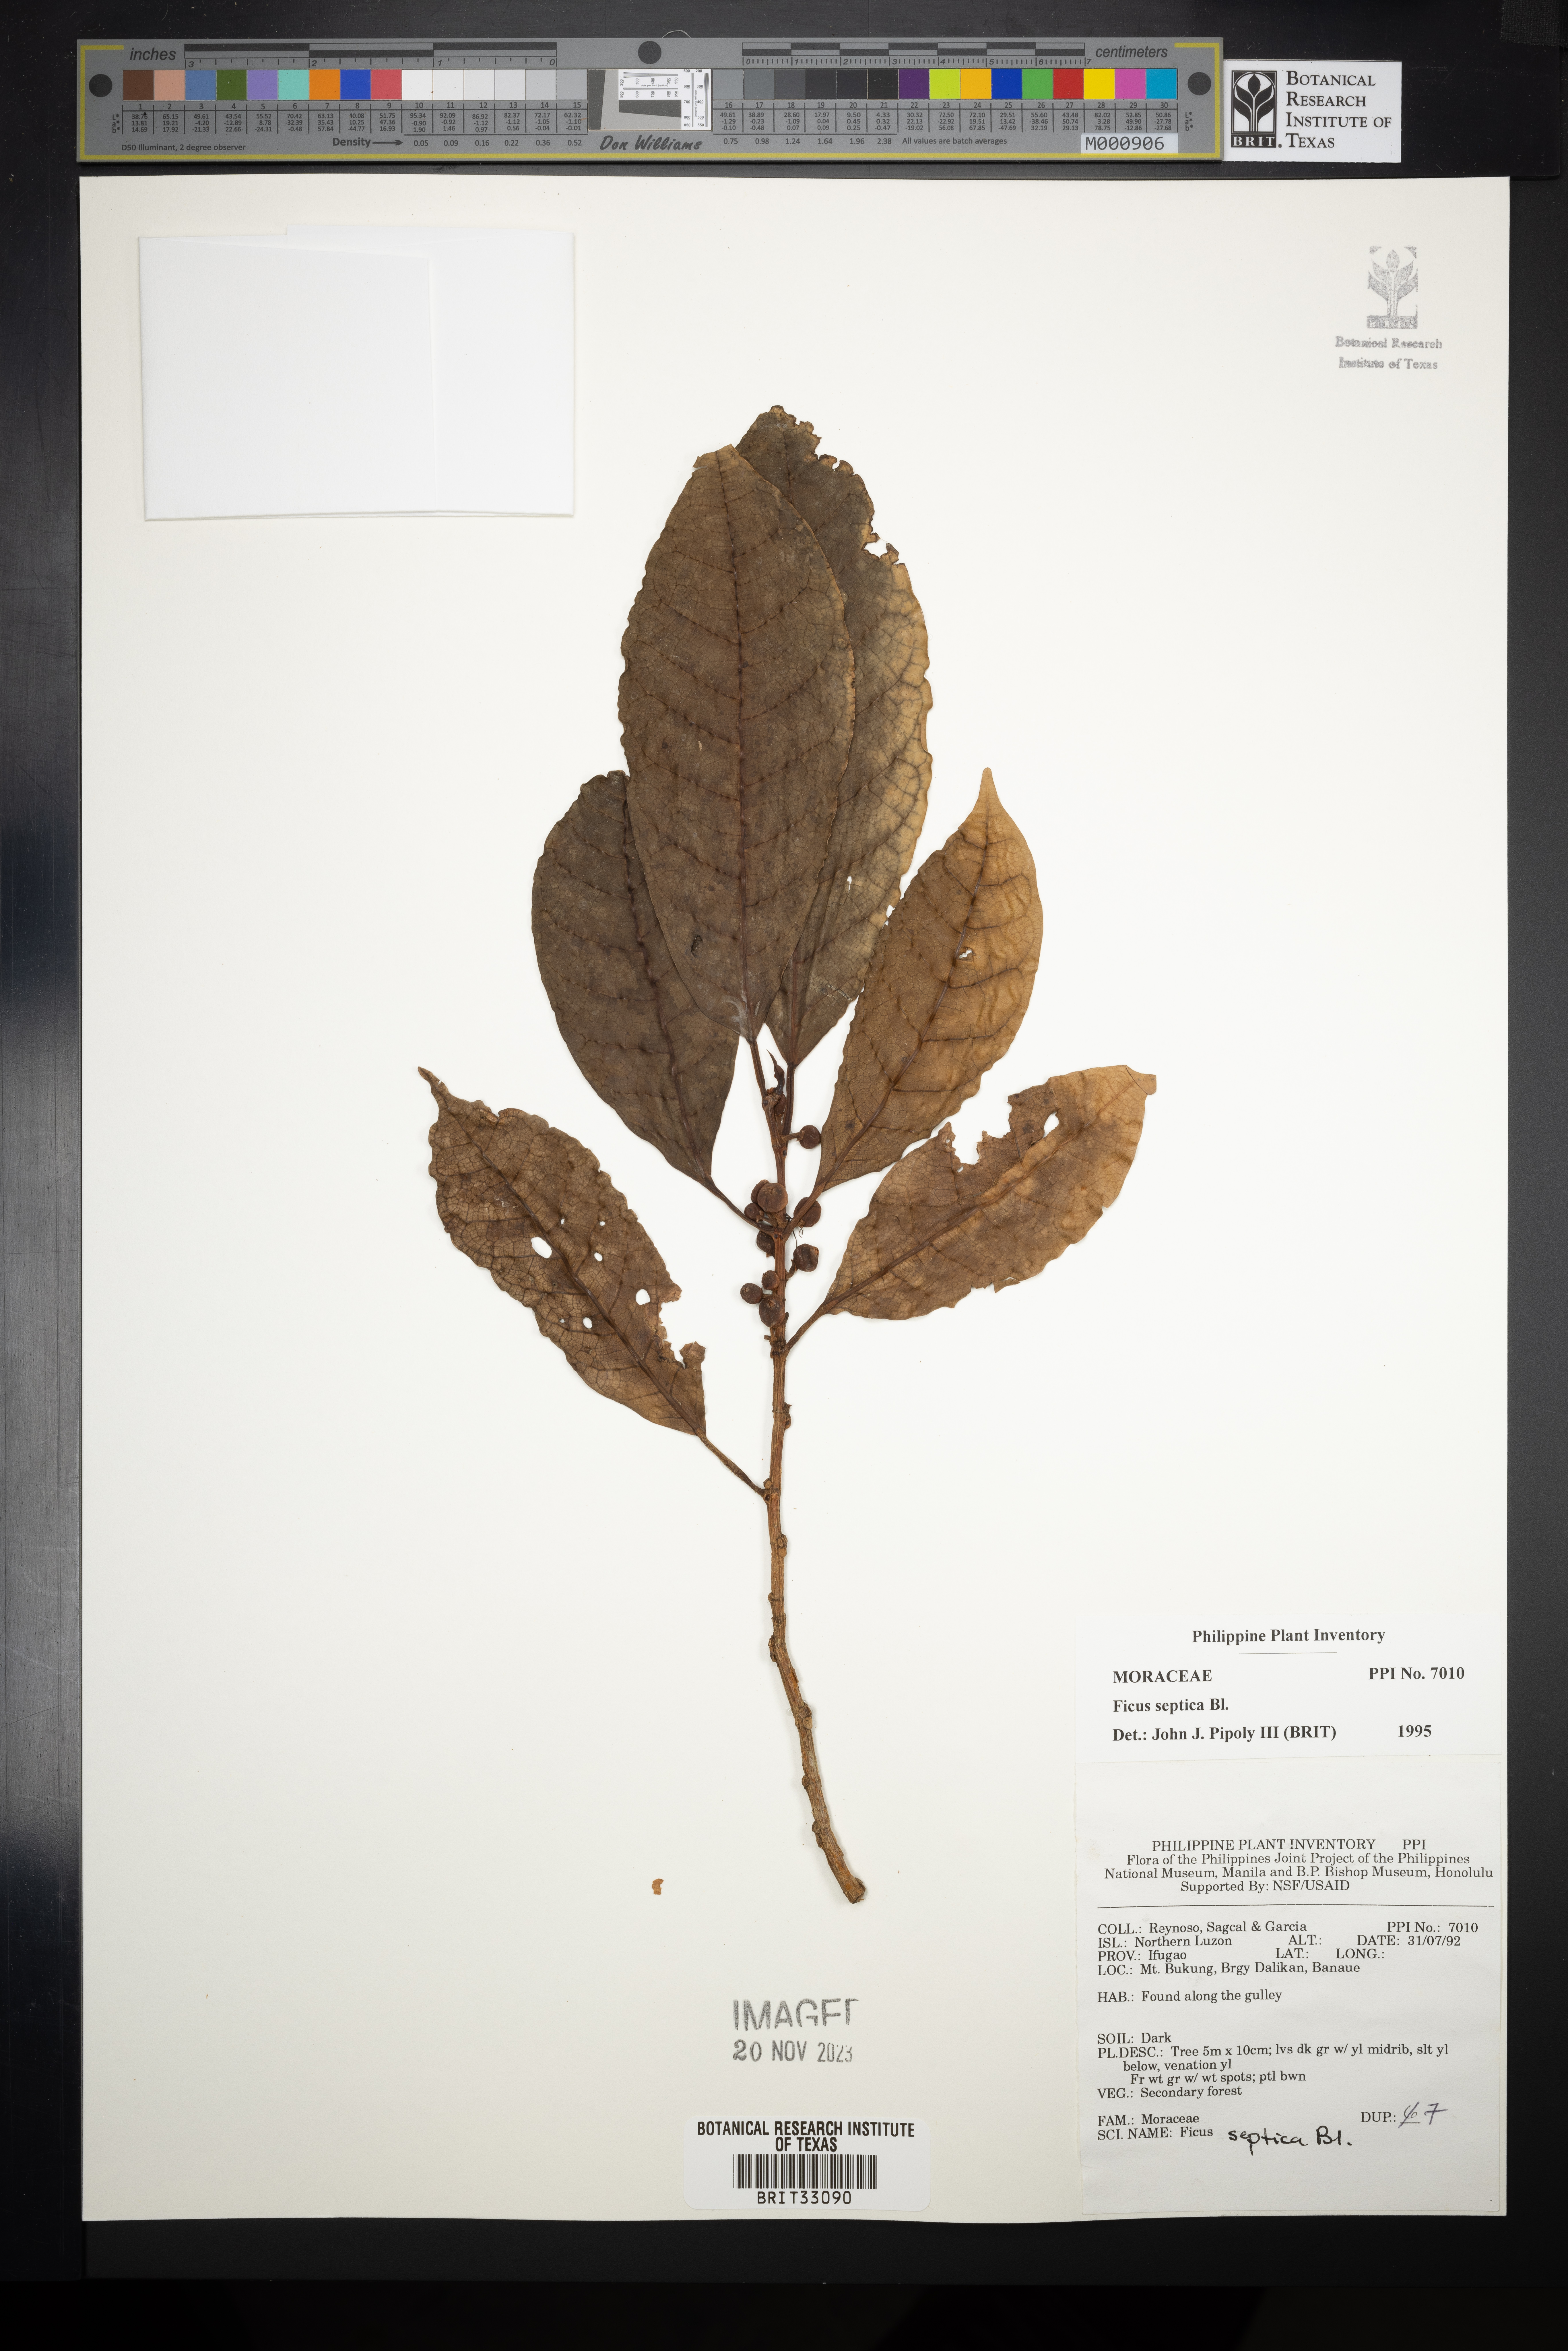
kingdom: Plantae
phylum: Tracheophyta
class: Magnoliopsida
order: Rosales
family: Moraceae
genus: Ficus
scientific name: Ficus septica
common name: Septic fig
